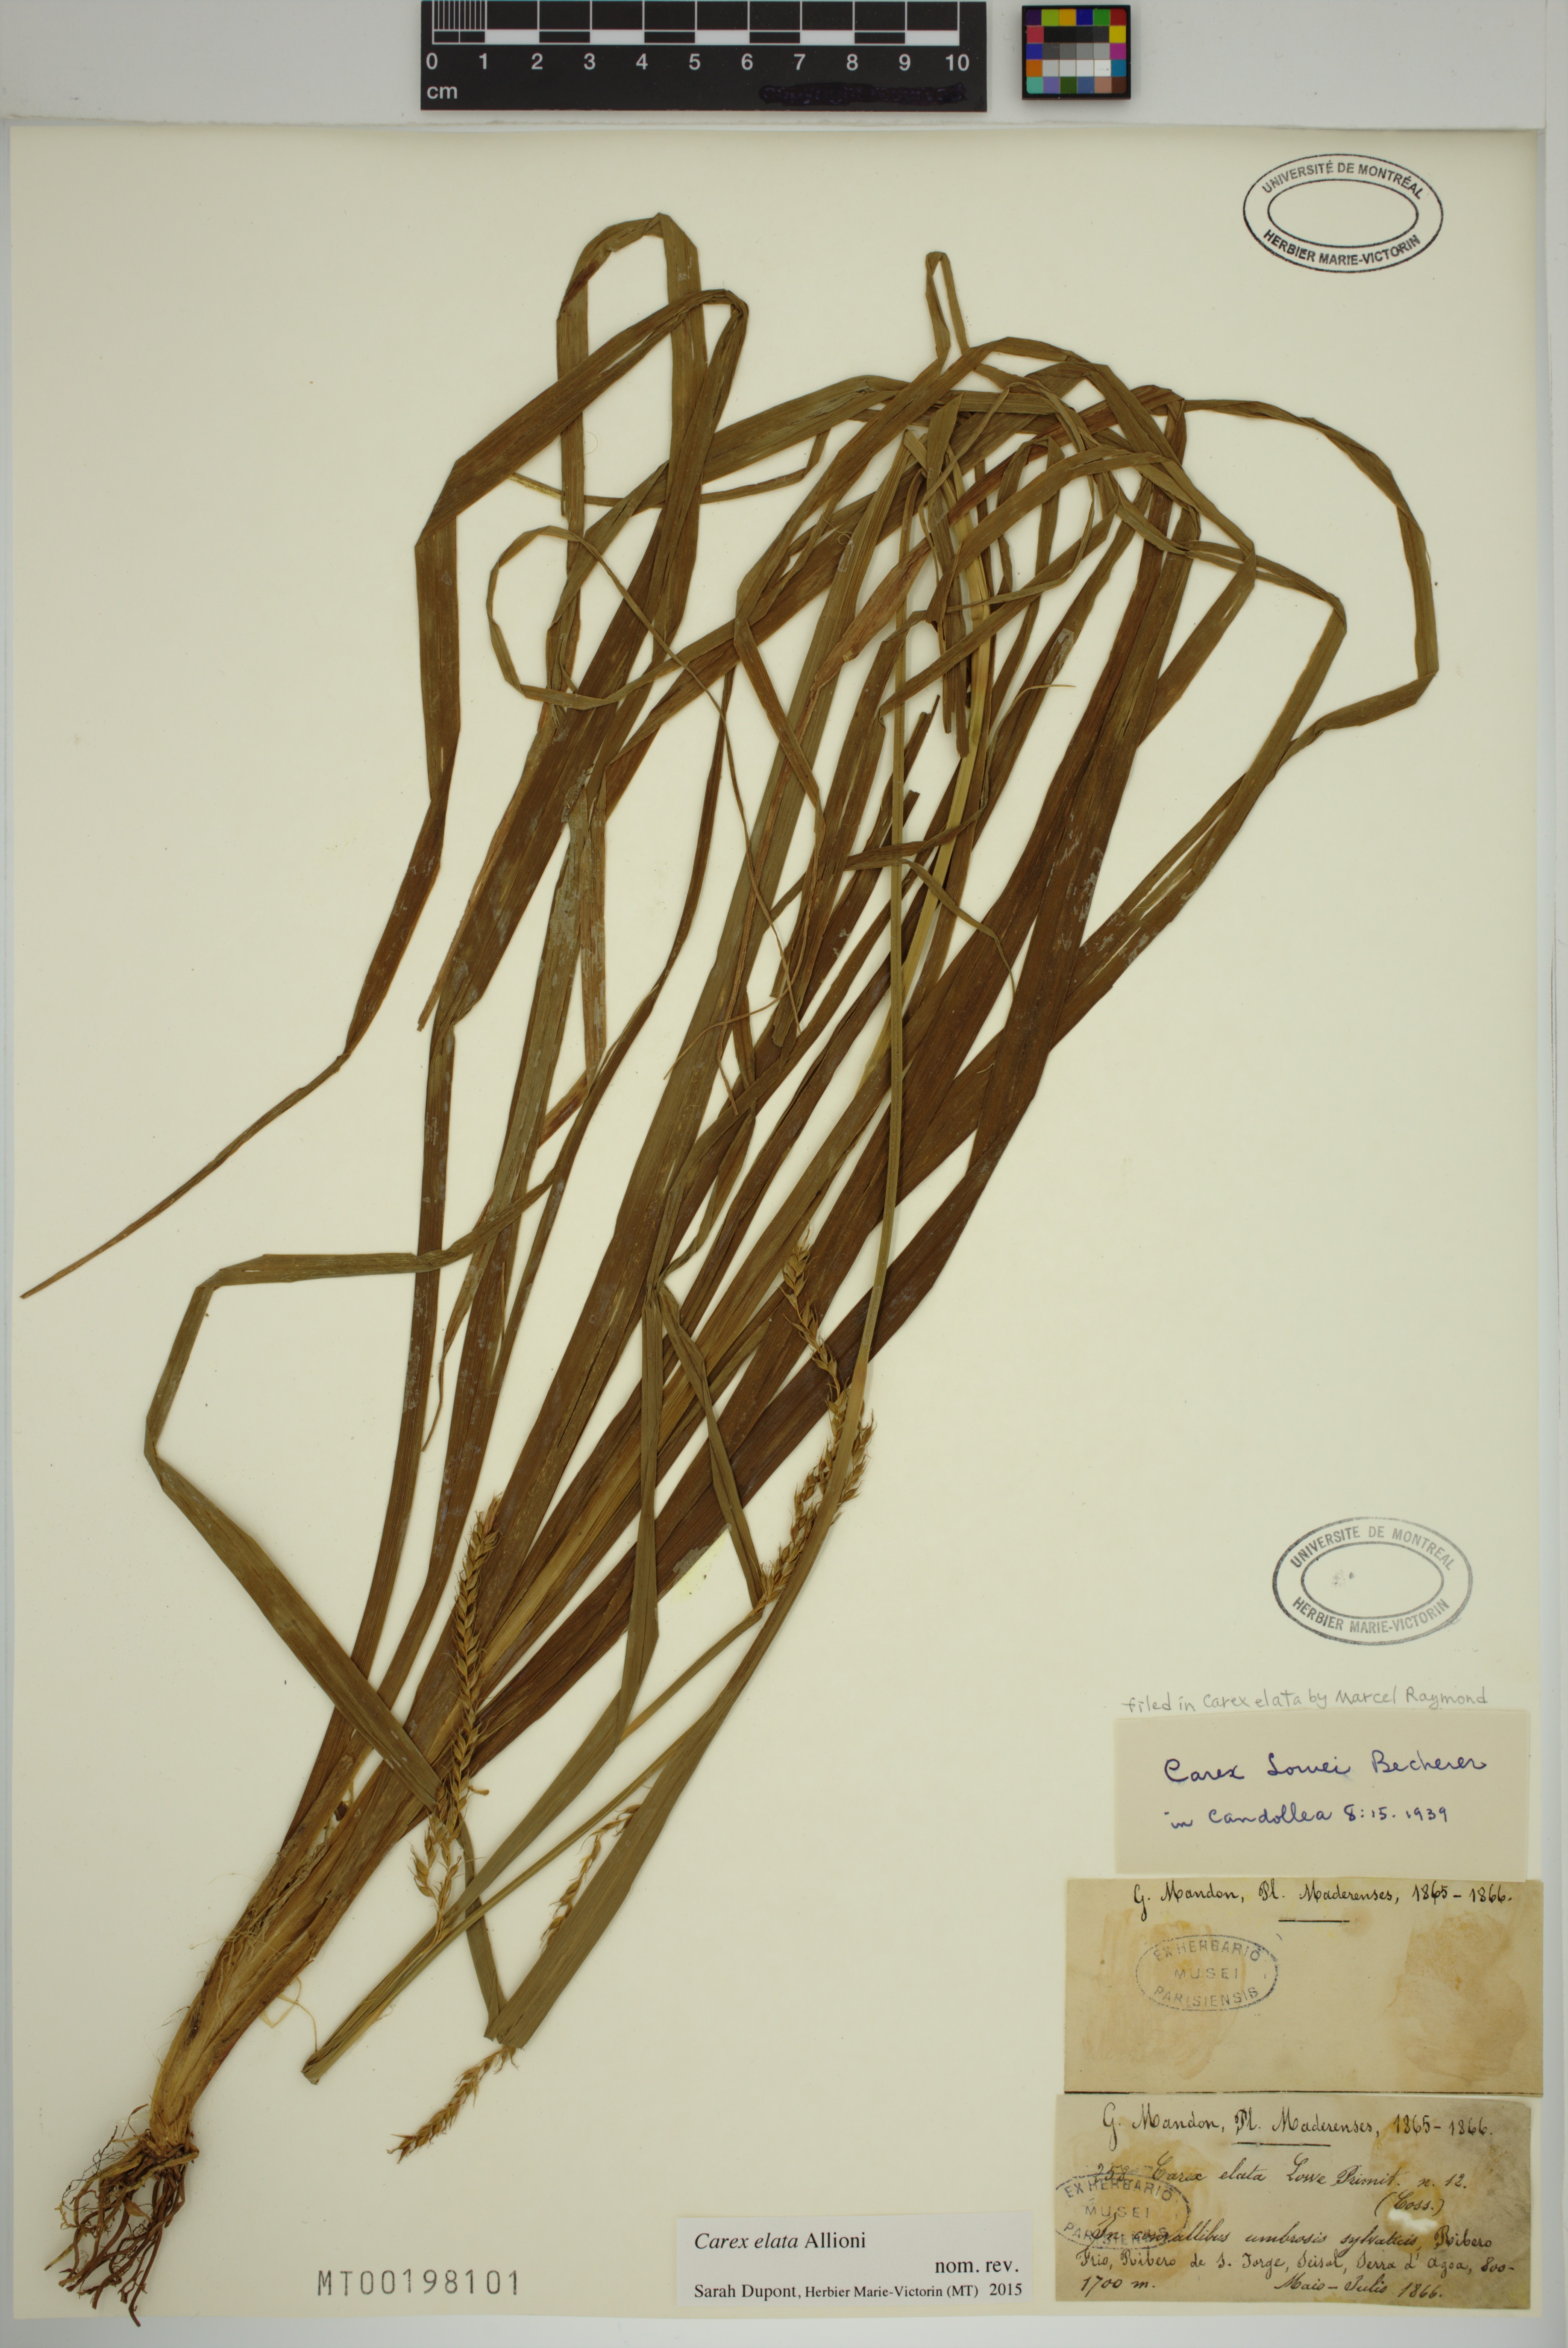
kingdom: Plantae
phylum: Tracheophyta
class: Liliopsida
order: Poales
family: Cyperaceae
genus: Carex
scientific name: Carex elata
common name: Tufted sedge
